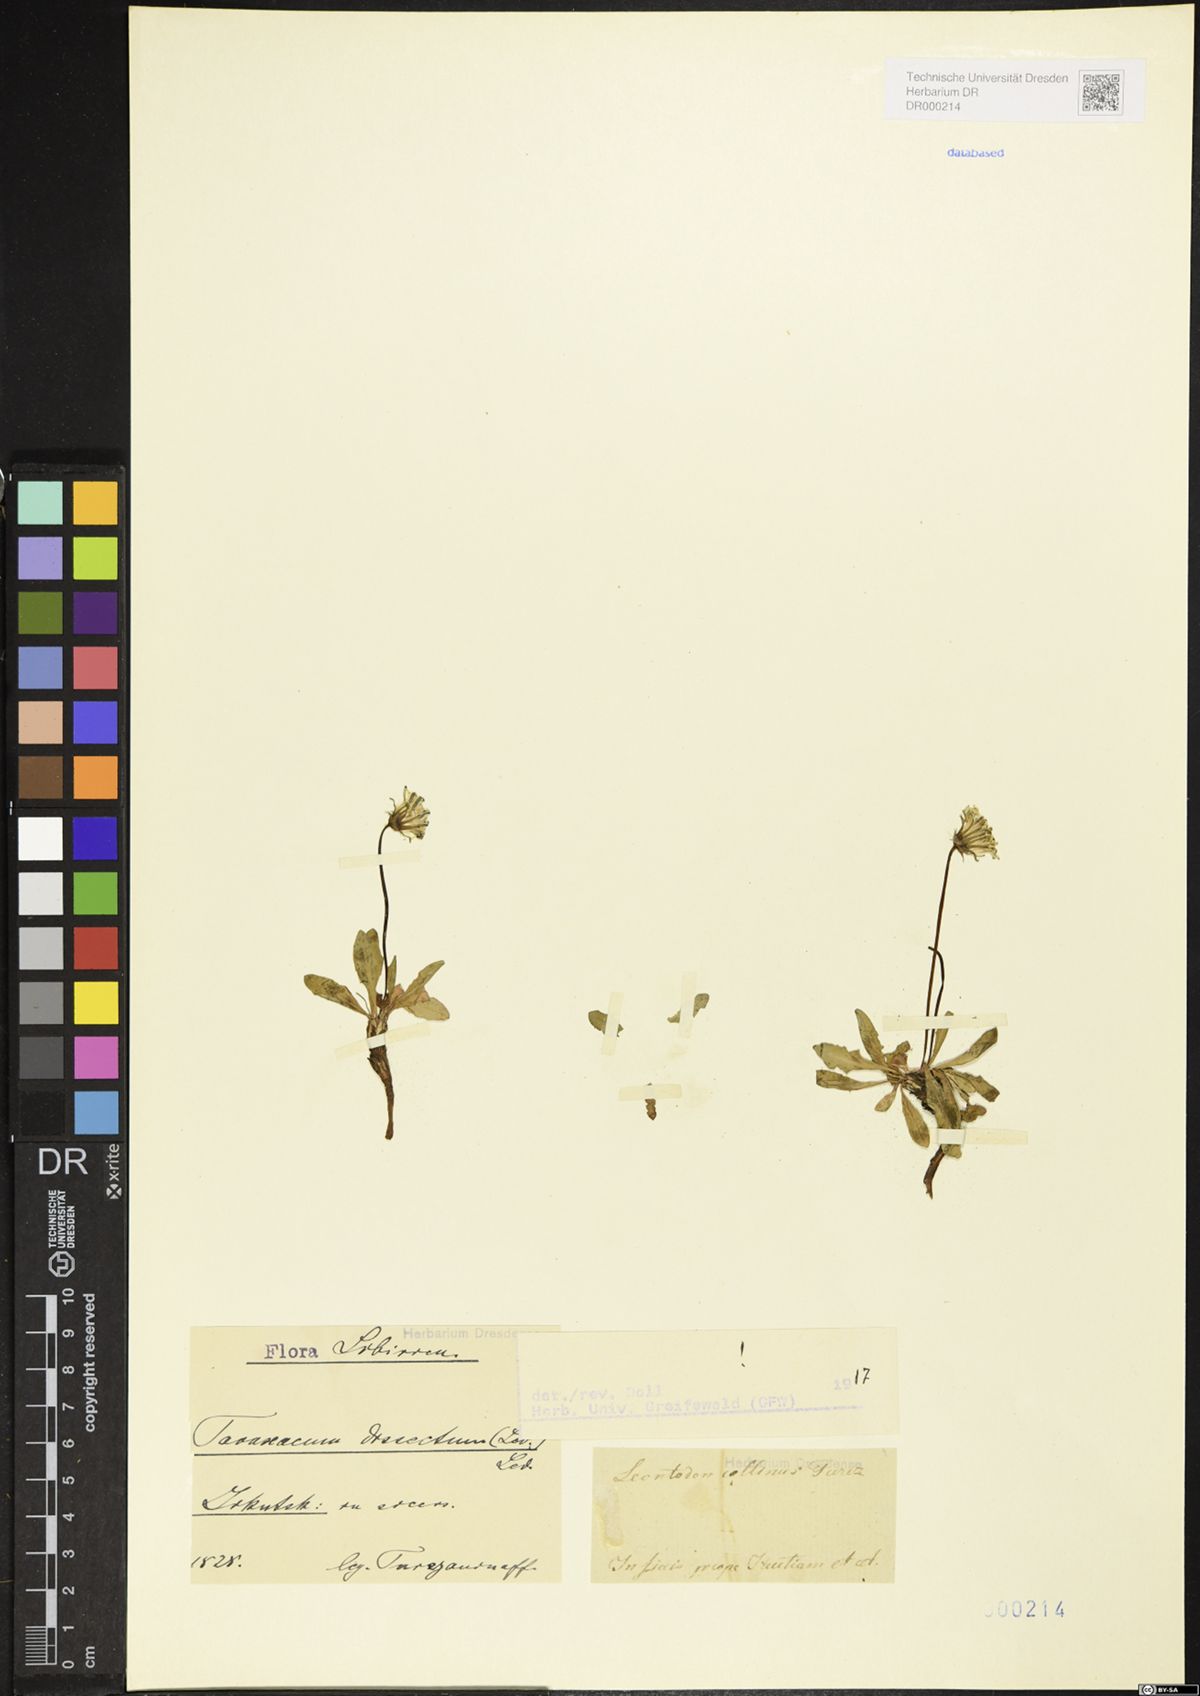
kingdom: Plantae
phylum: Tracheophyta
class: Magnoliopsida
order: Asterales
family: Asteraceae
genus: Taraxacum
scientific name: Taraxacum dissectum
